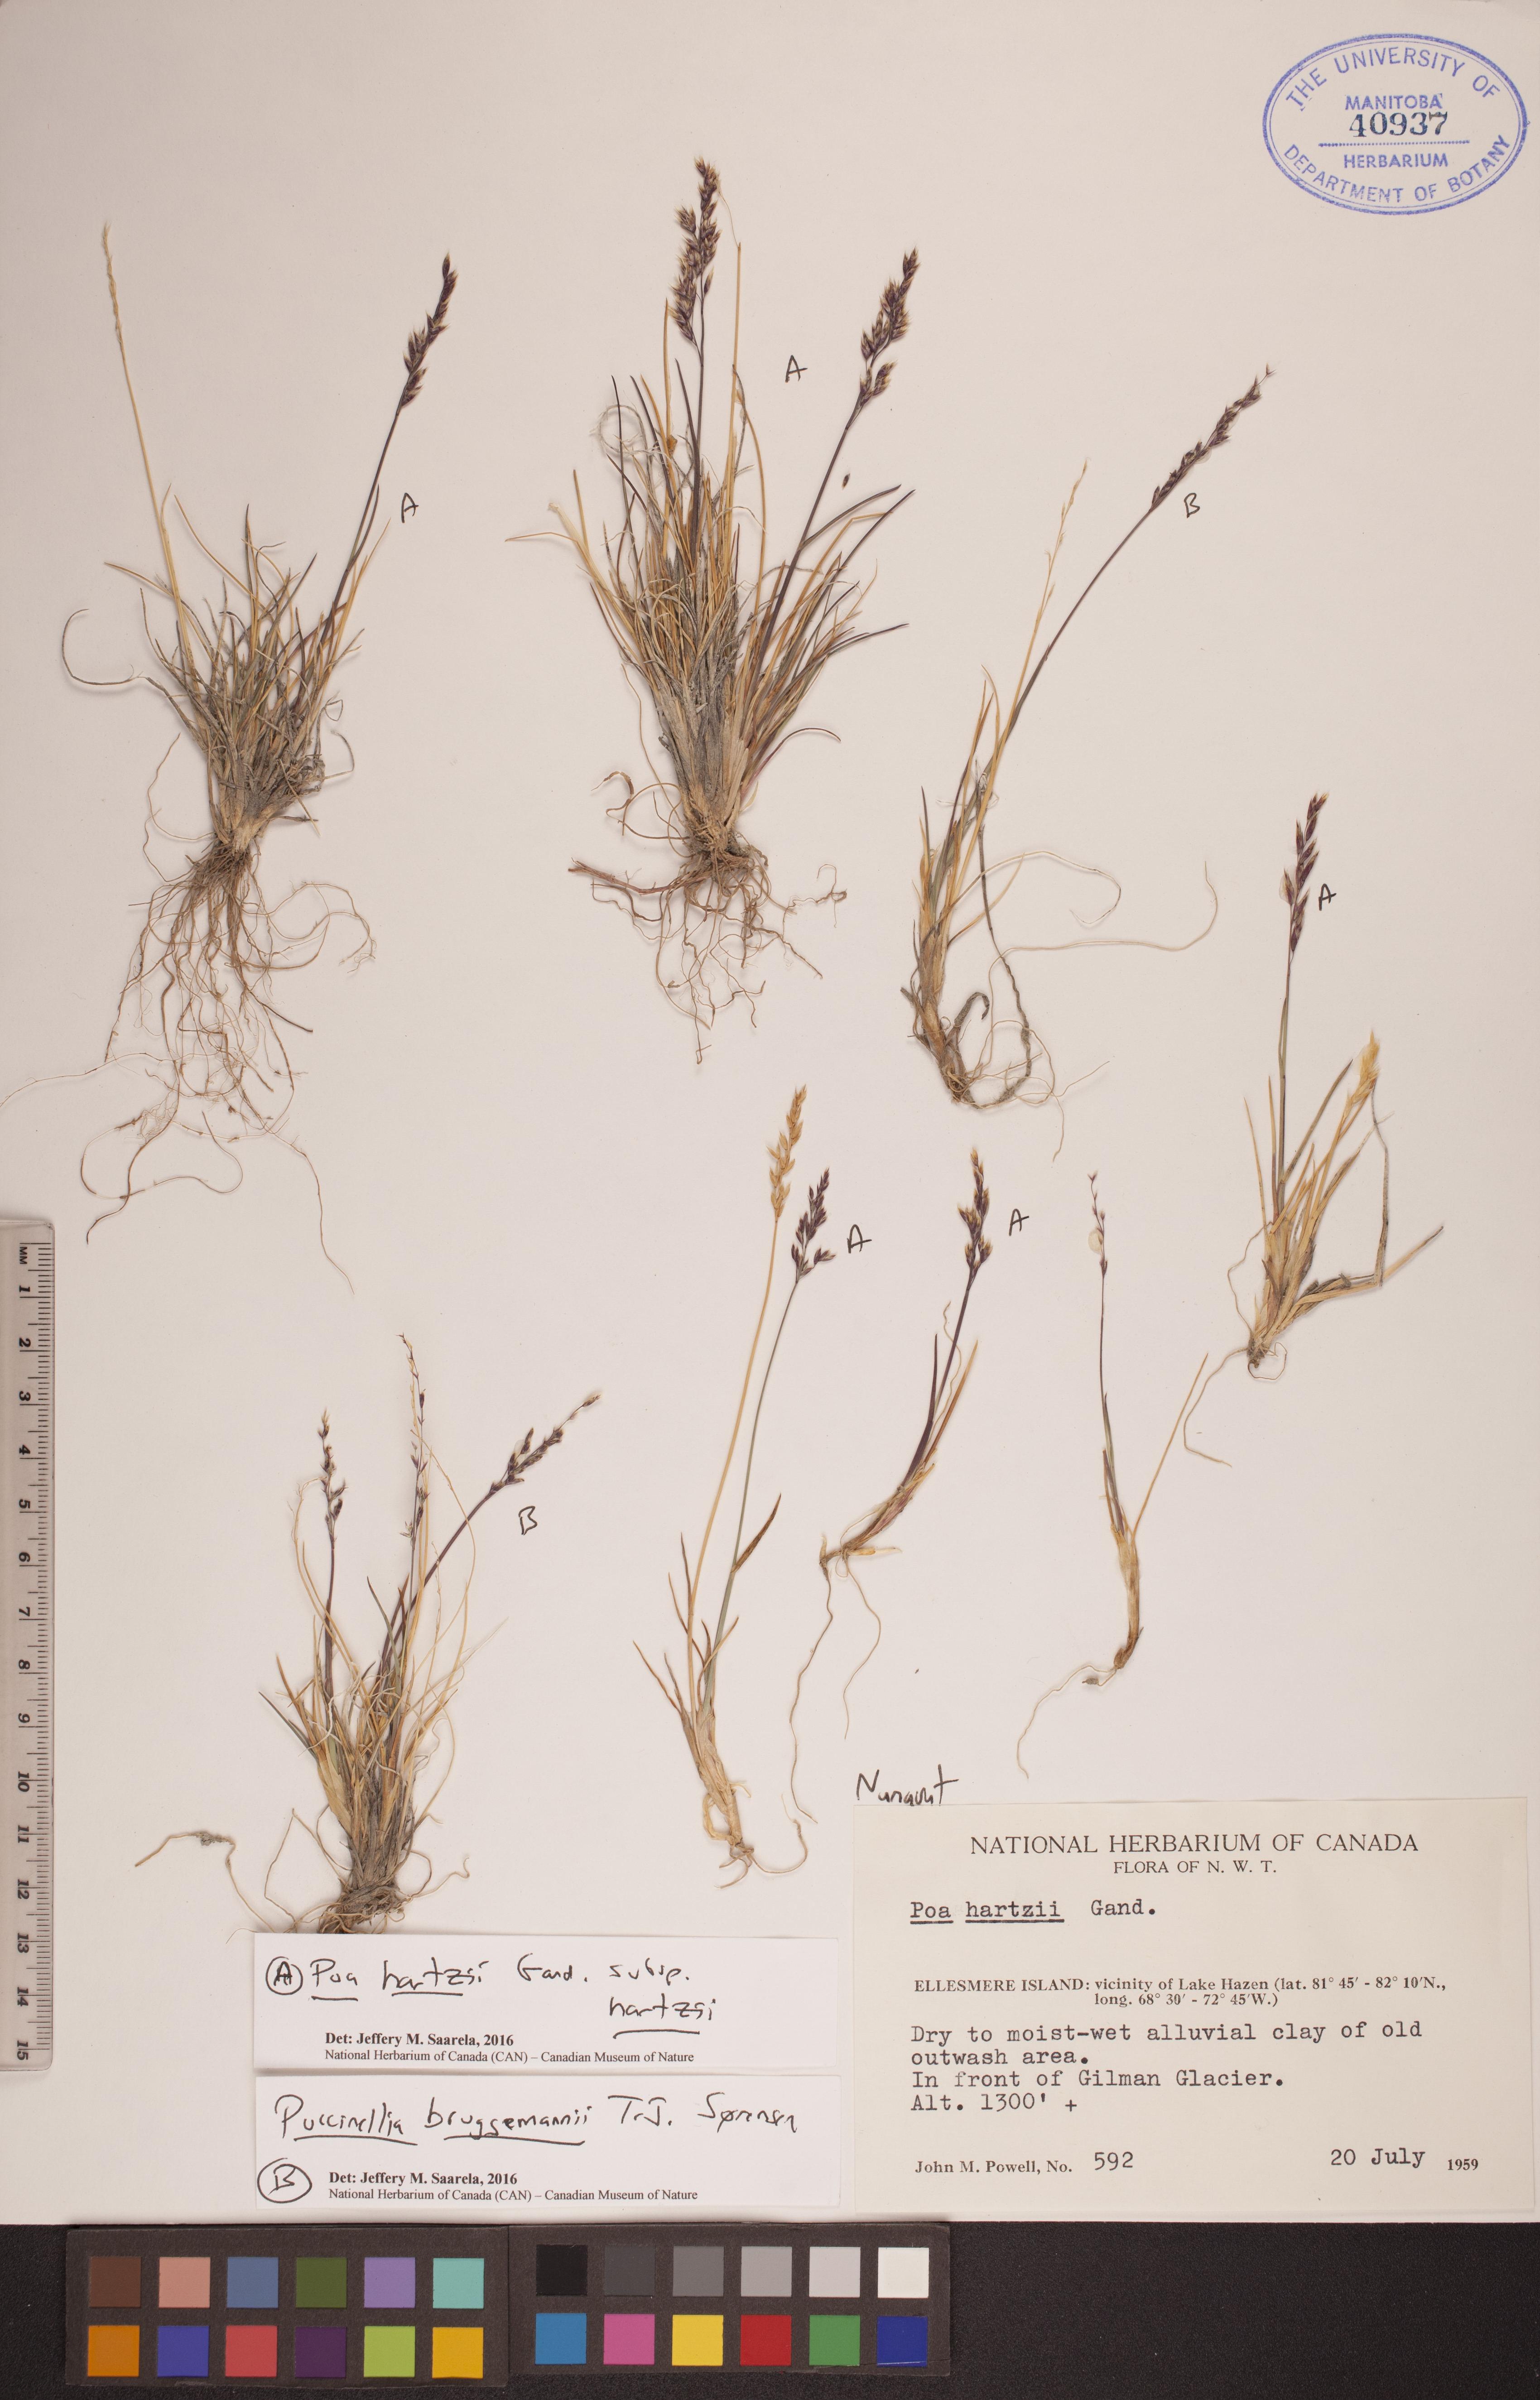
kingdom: Plantae
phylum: Tracheophyta
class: Liliopsida
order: Poales
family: Poaceae
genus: Puccinellia
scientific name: Puccinellia bruggemannii
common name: Bruggemann's alkaligrass
